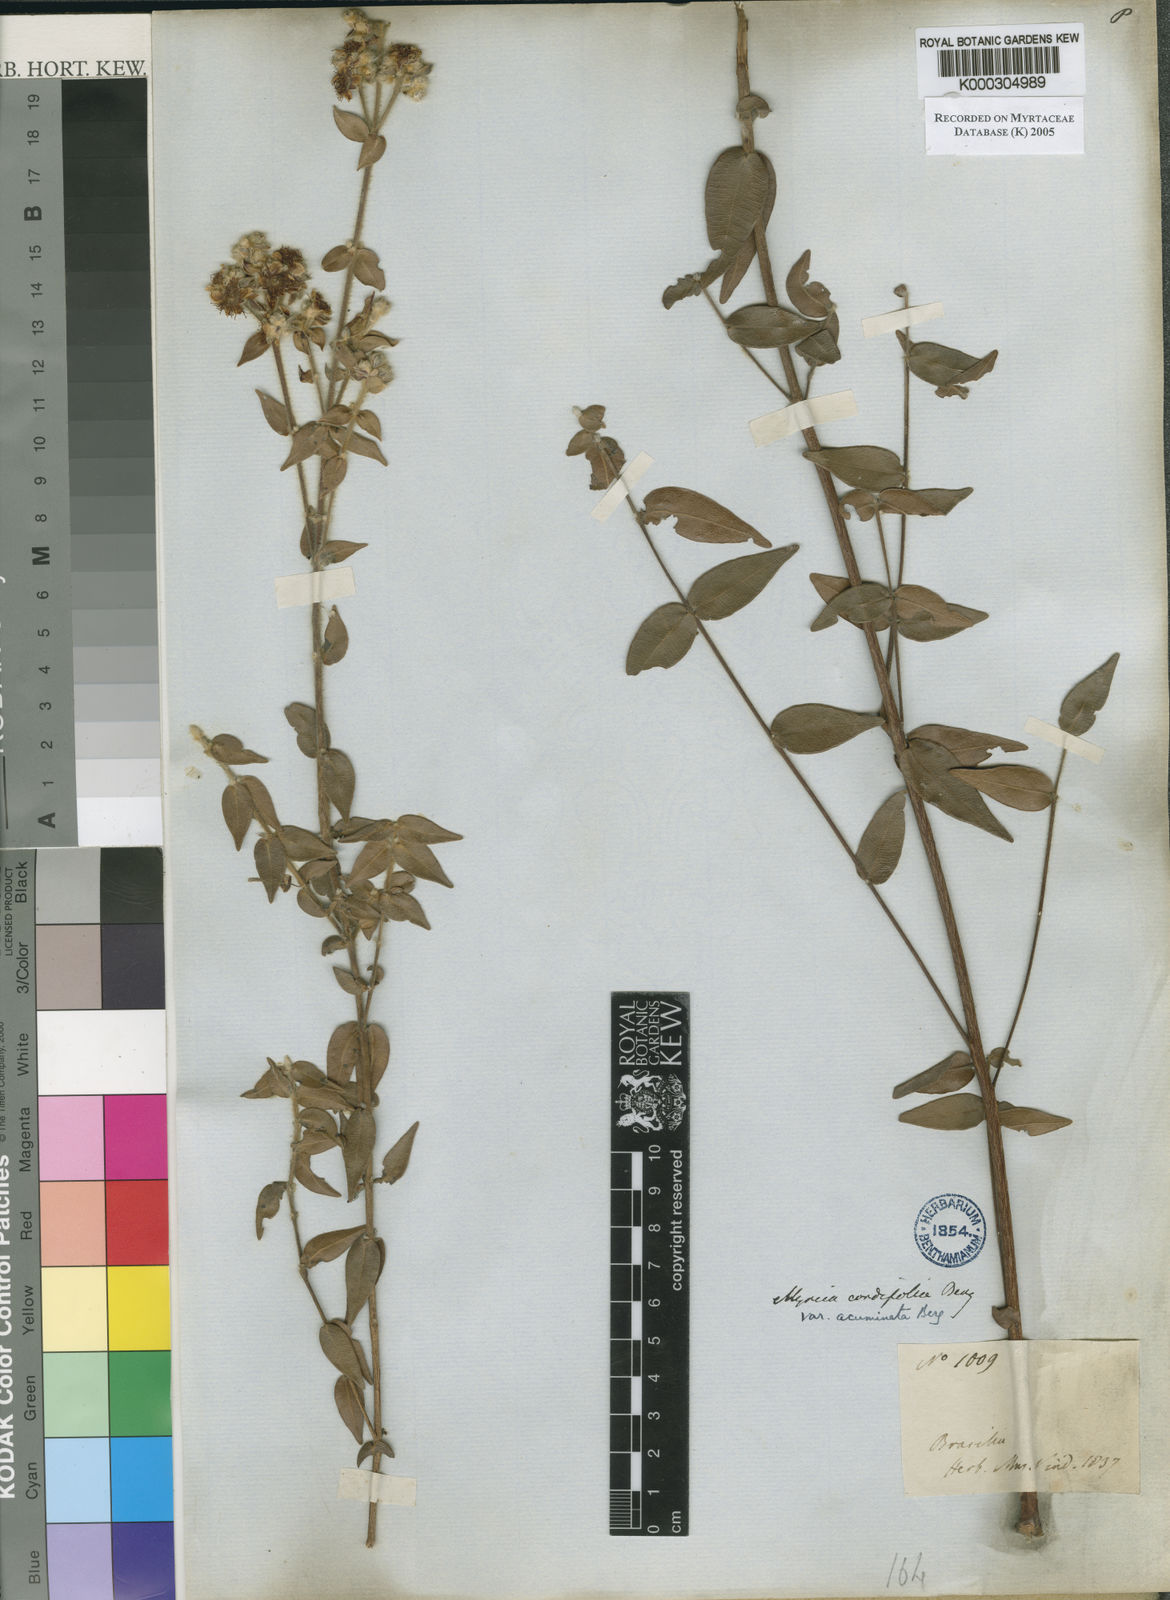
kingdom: Plantae
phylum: Tracheophyta
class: Magnoliopsida
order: Myrtales
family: Myrtaceae
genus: Myrcia
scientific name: Myrcia lasiantha
